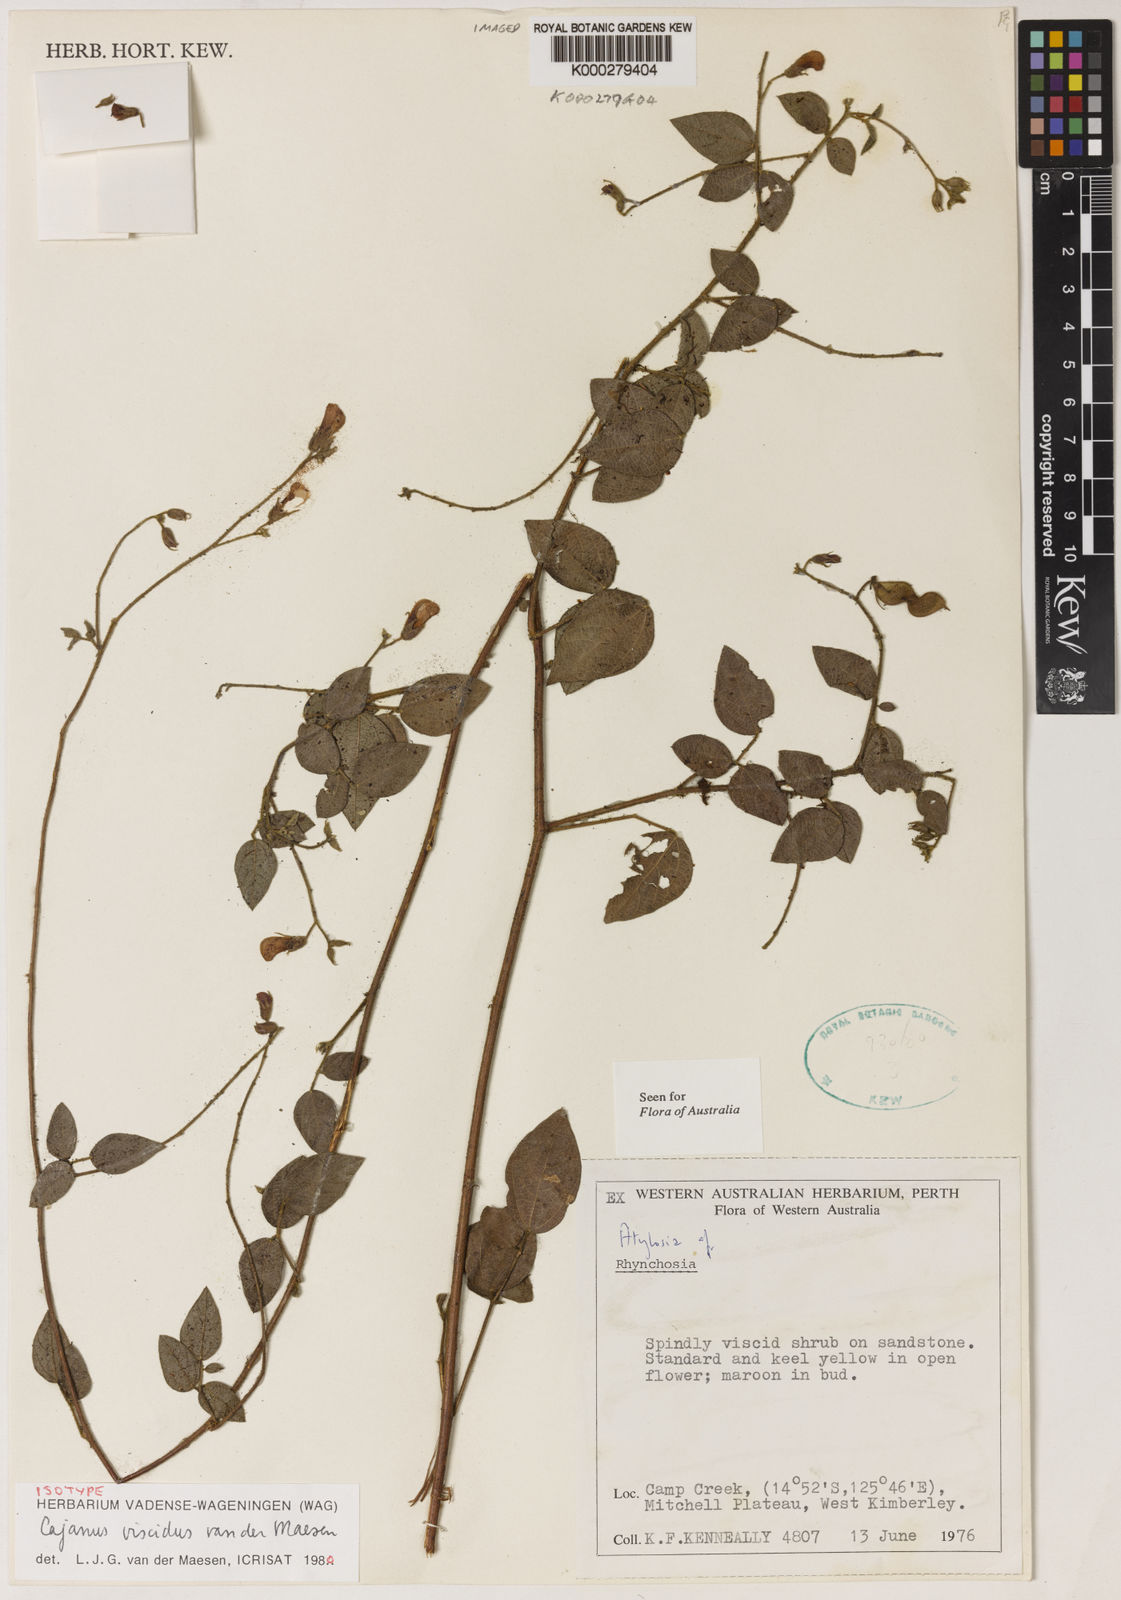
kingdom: Plantae
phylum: Tracheophyta
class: Magnoliopsida
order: Fabales
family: Fabaceae
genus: Cajanus
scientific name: Cajanus viscidus
